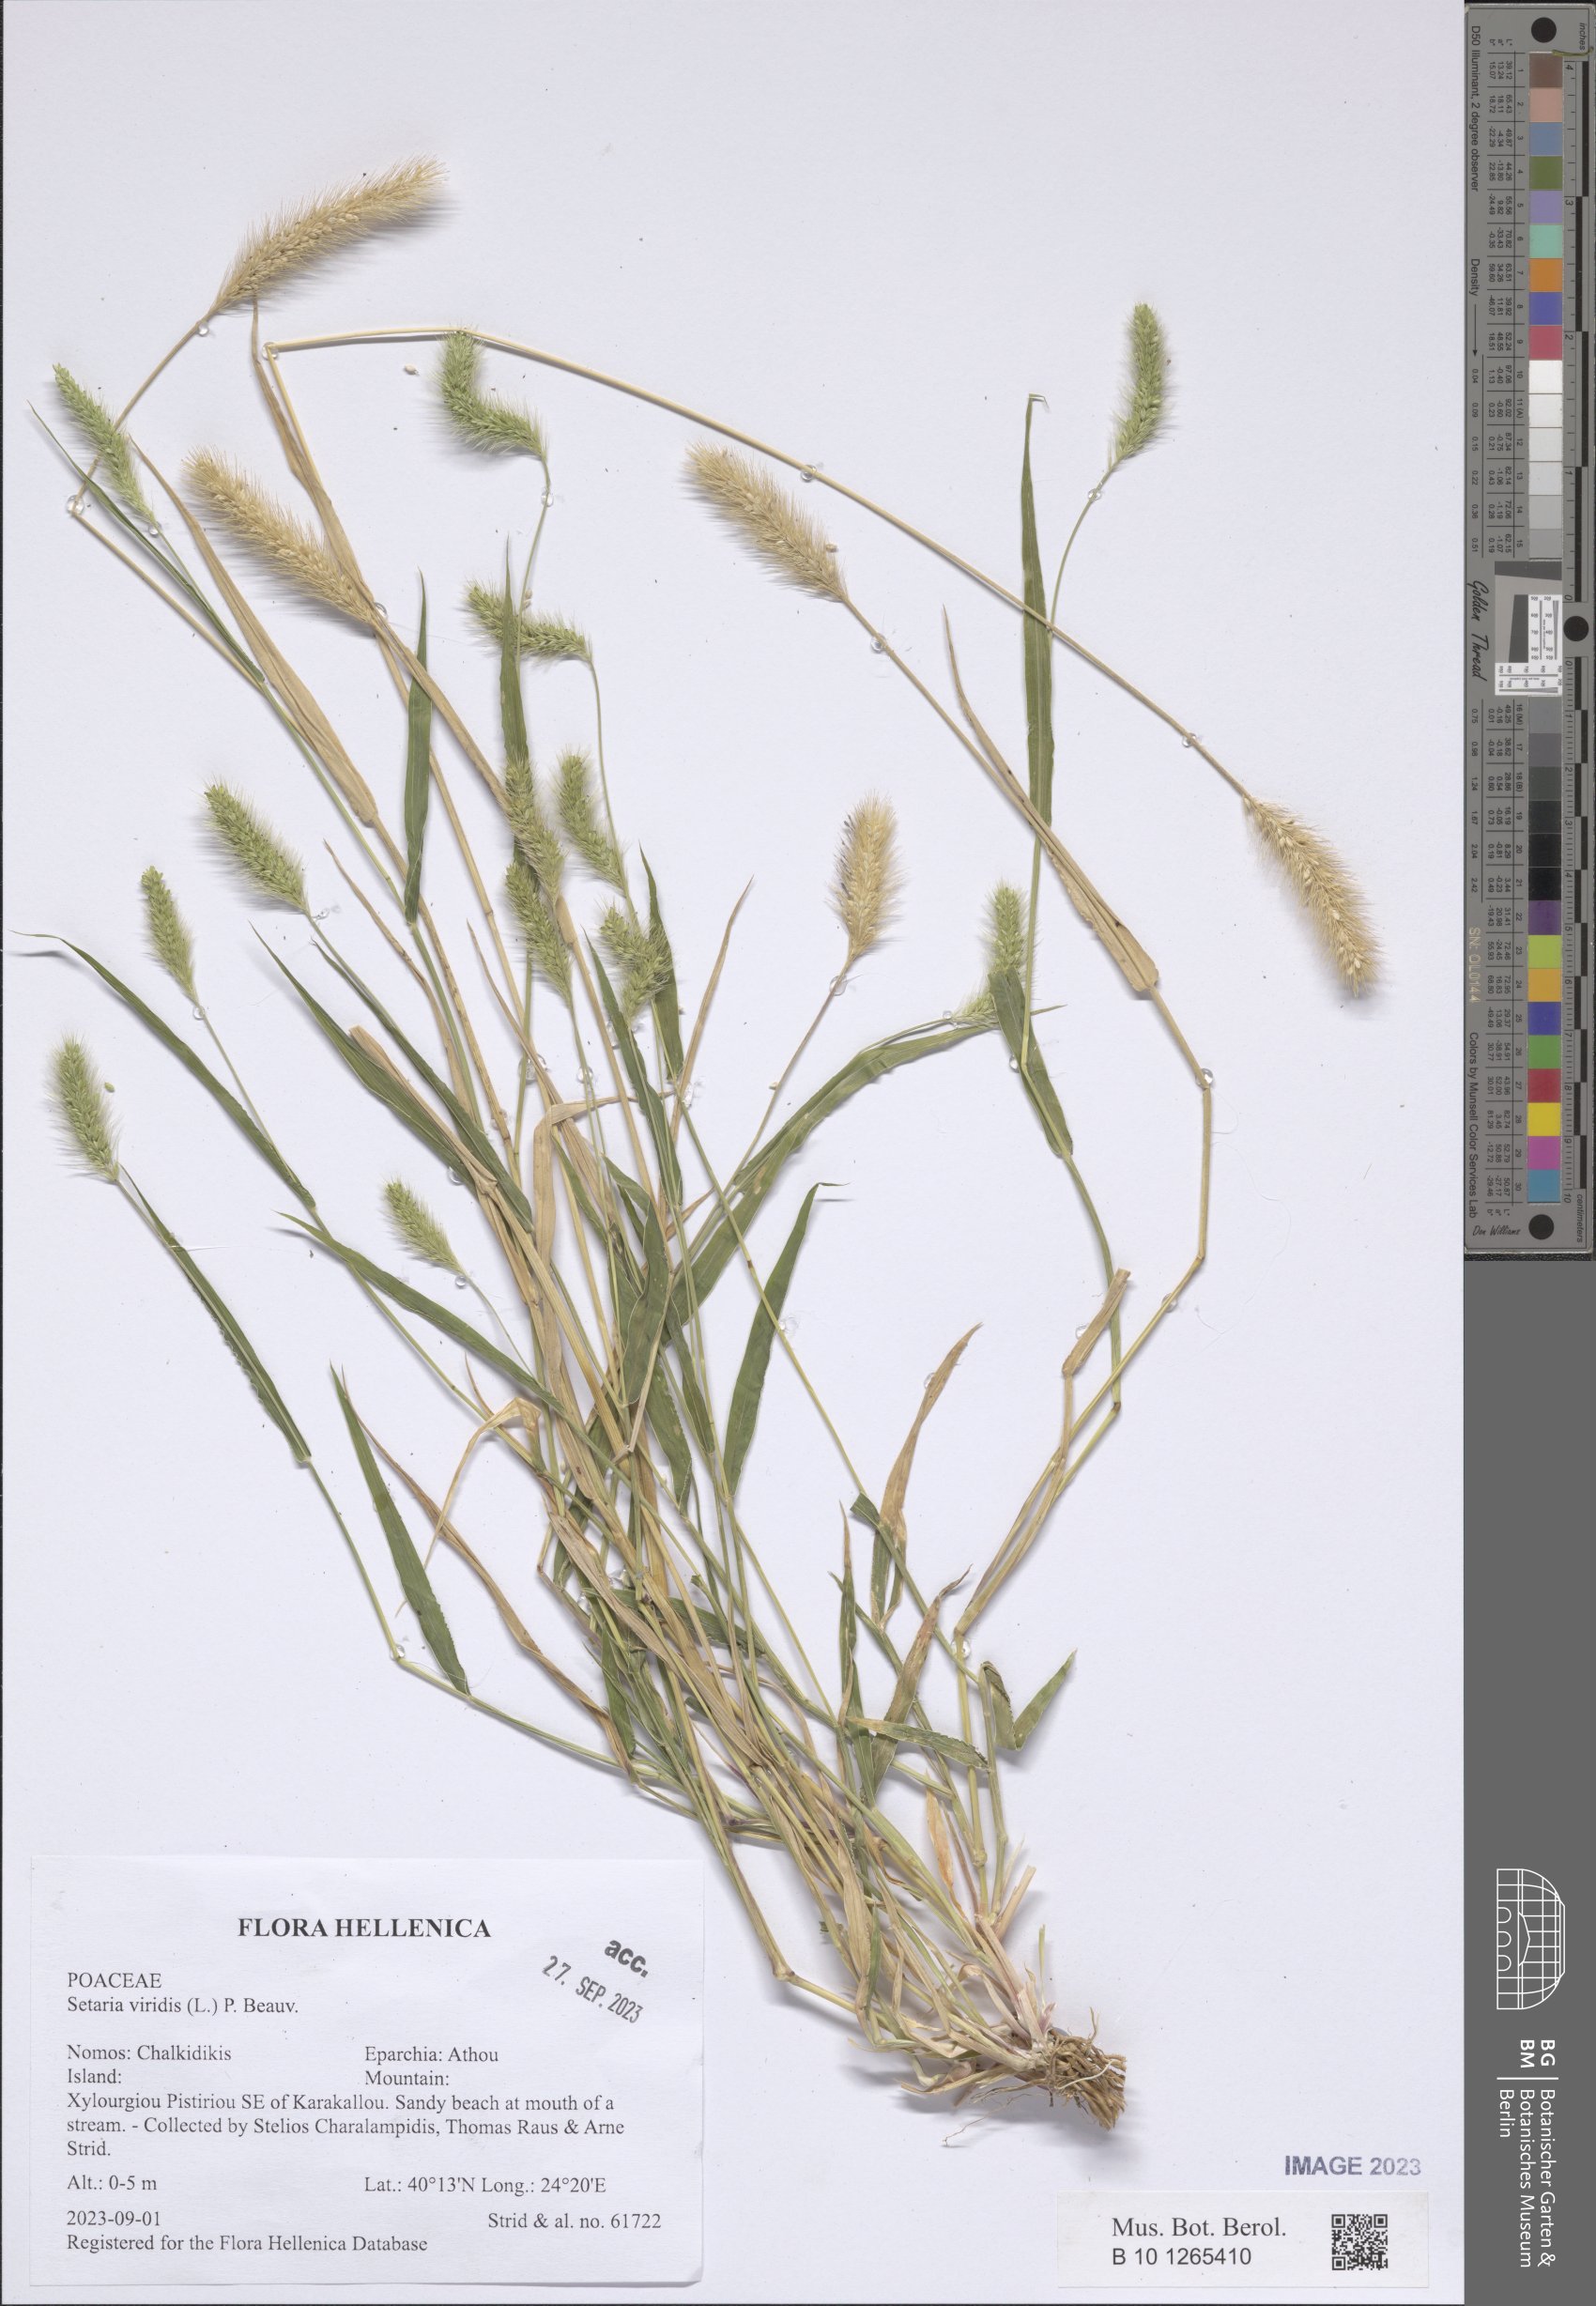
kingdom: Plantae
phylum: Tracheophyta
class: Liliopsida
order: Poales
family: Poaceae
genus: Setaria
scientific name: Setaria viridis
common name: Green bristlegrass
